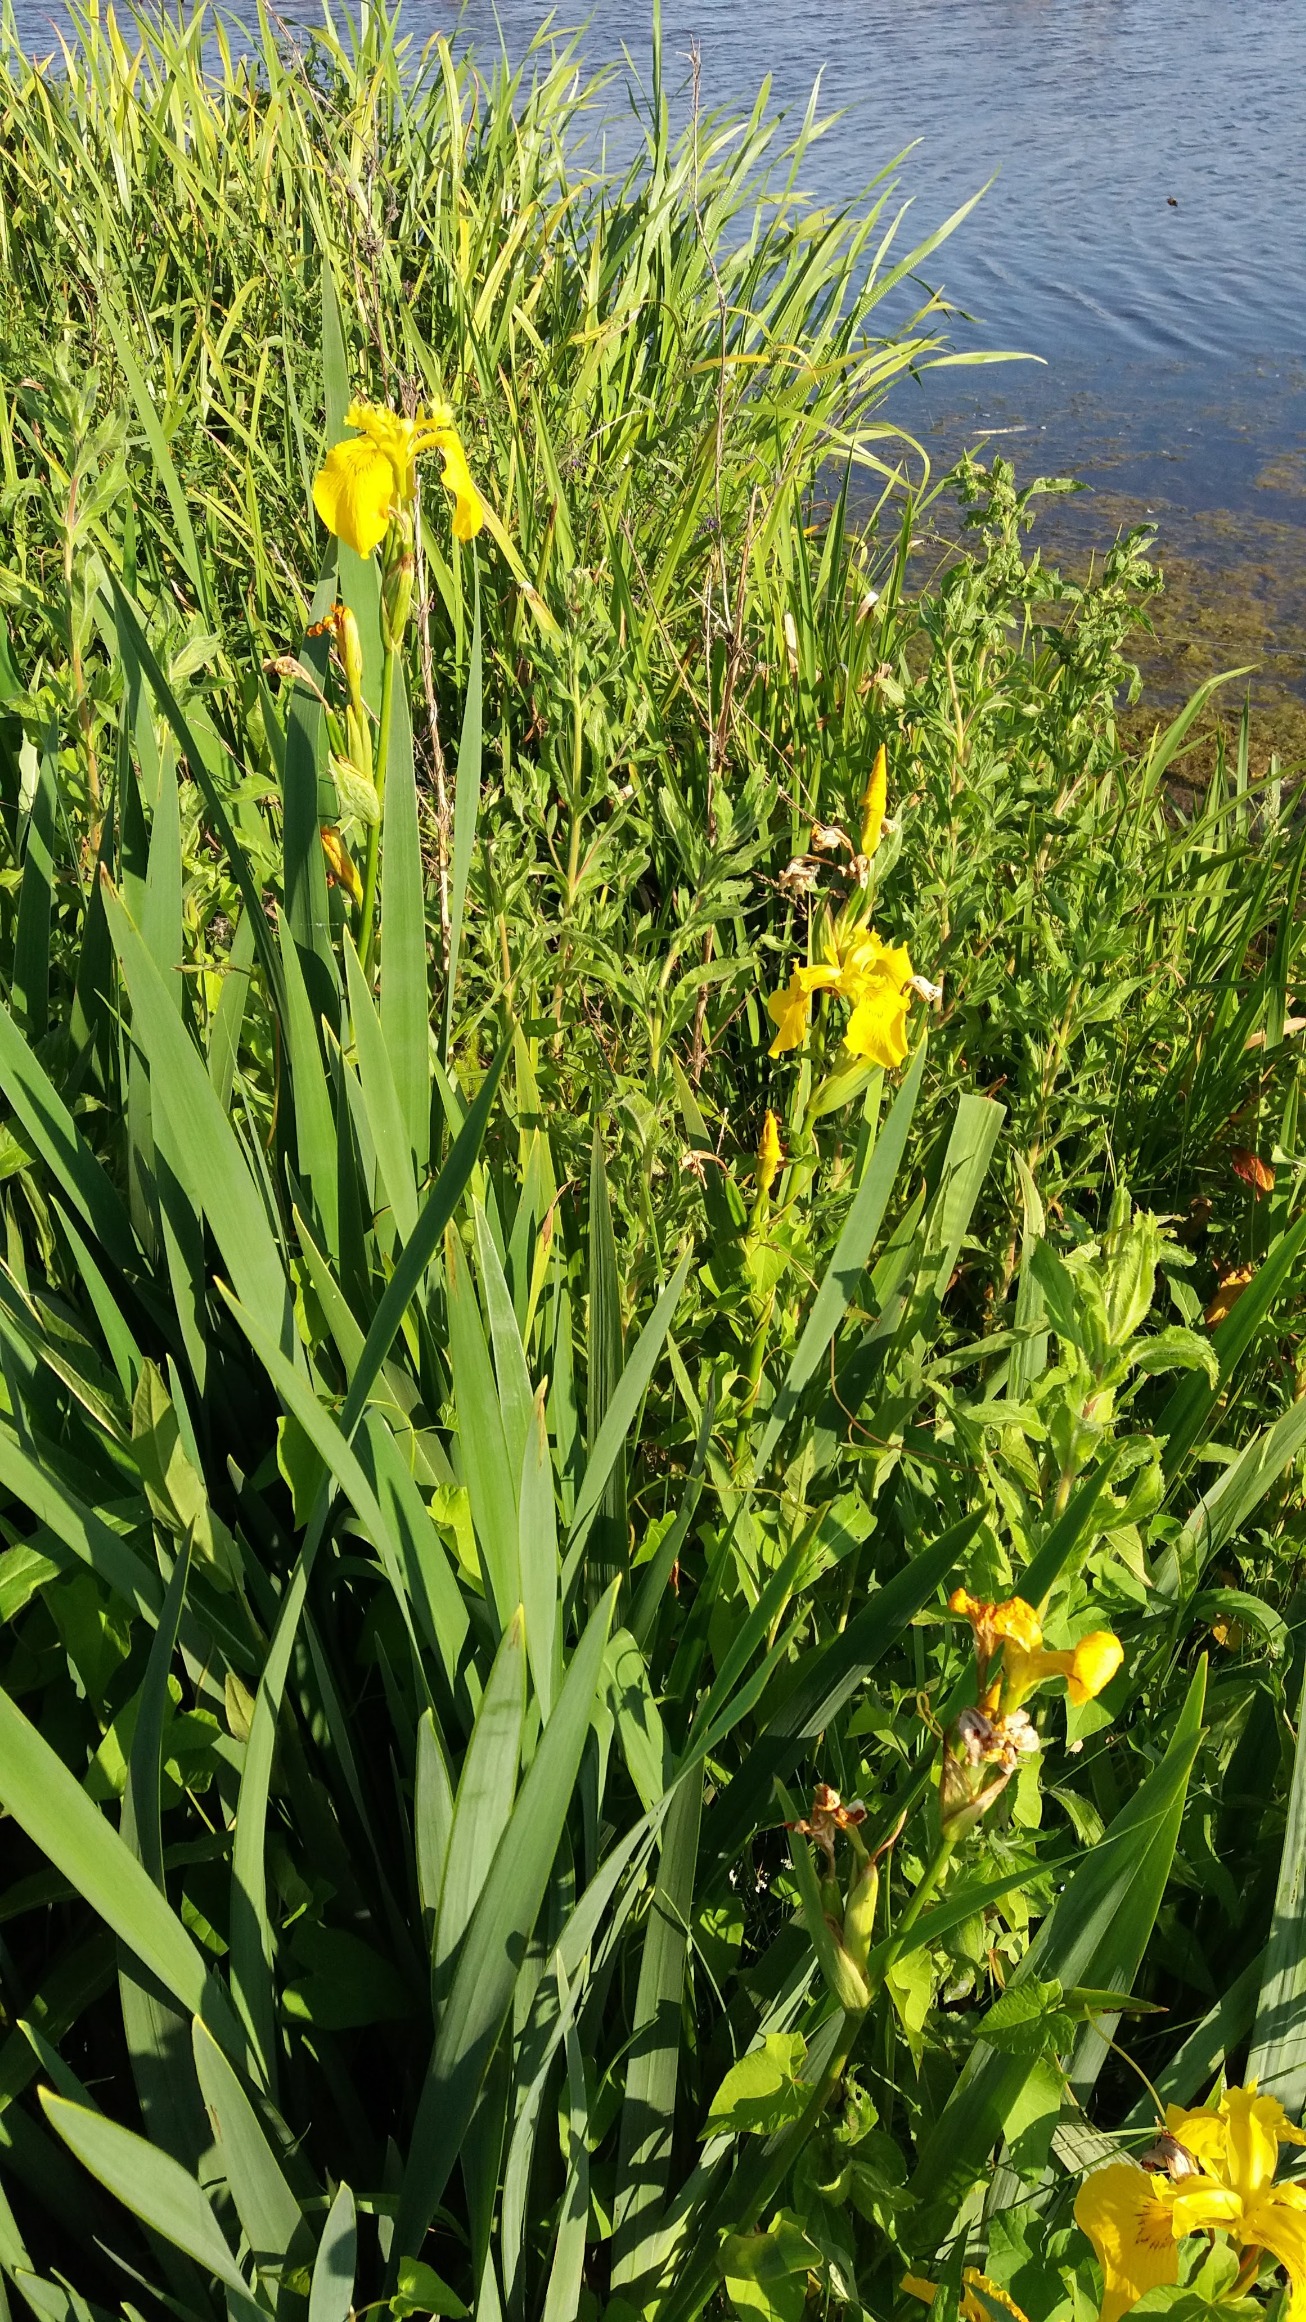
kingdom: Plantae
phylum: Tracheophyta
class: Liliopsida
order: Asparagales
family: Iridaceae
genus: Iris
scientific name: Iris pseudacorus
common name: Gul iris
